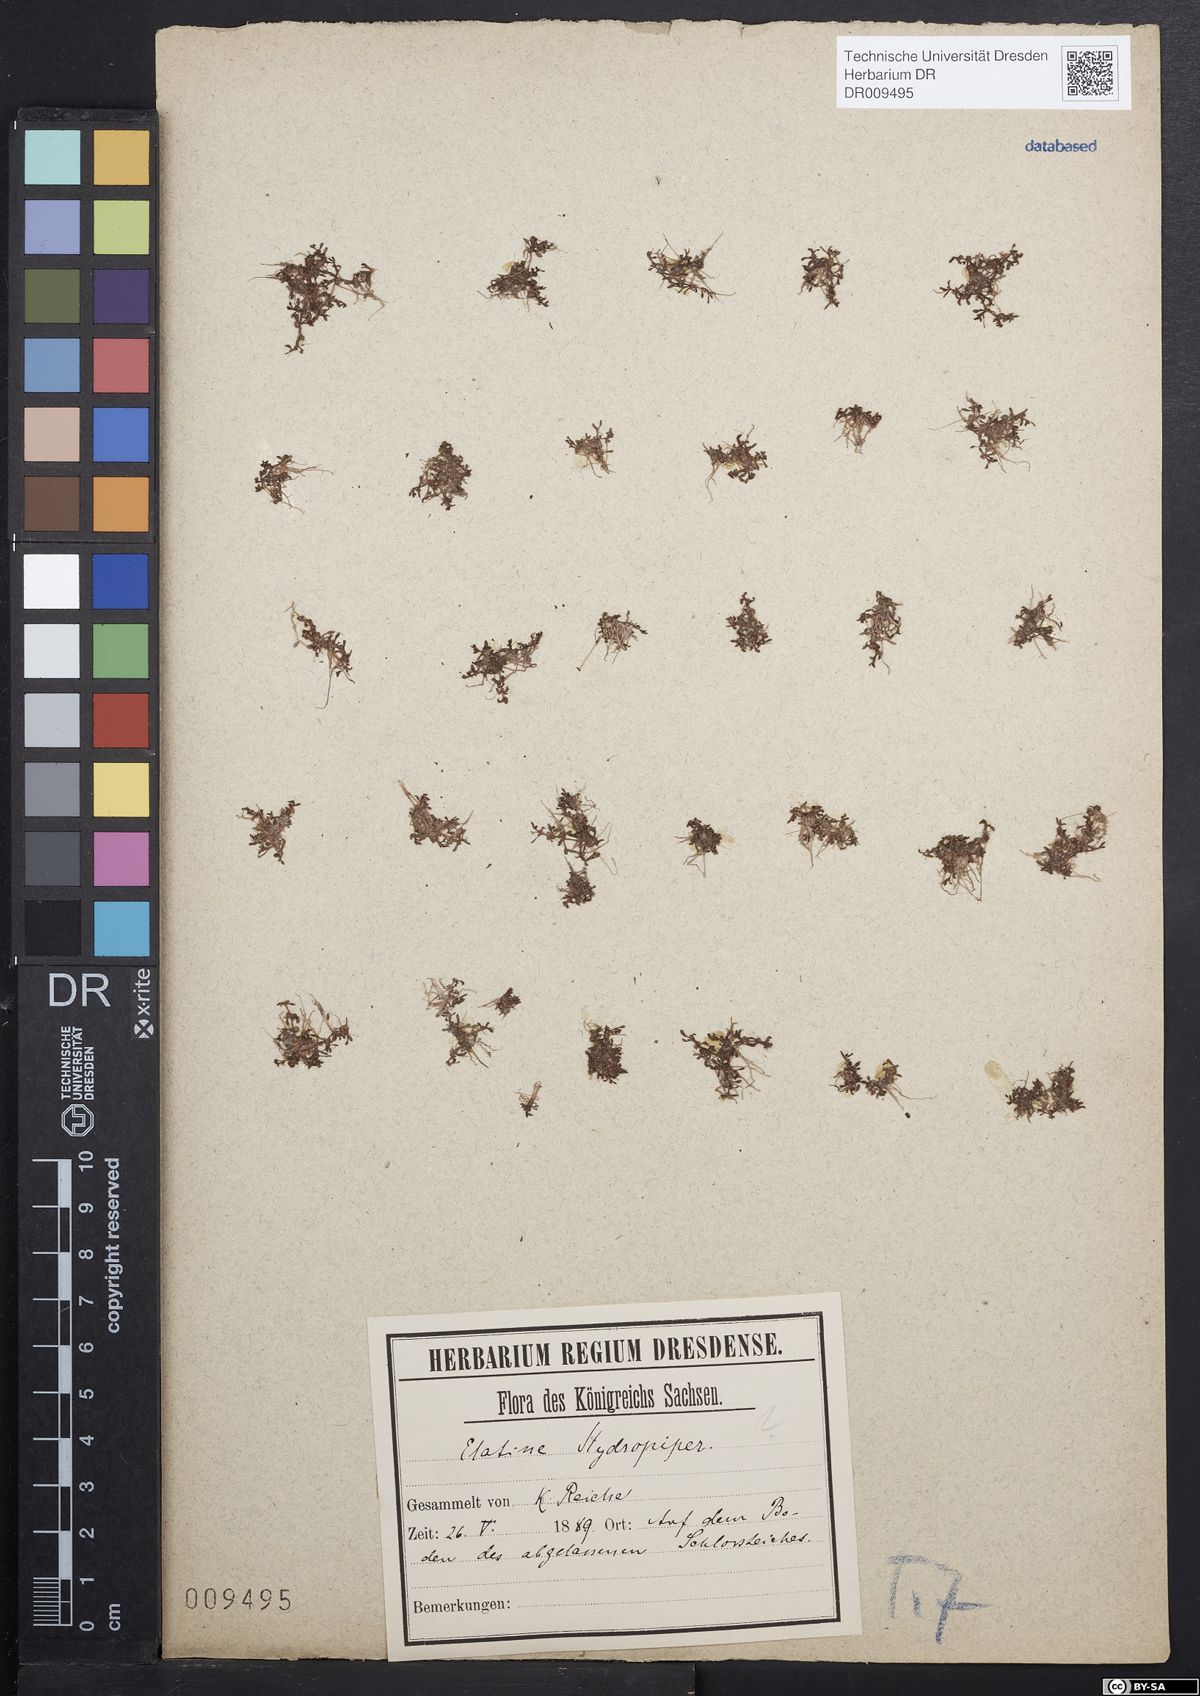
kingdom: Plantae
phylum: Tracheophyta
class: Magnoliopsida
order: Malpighiales
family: Elatinaceae
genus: Elatine
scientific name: Elatine hydropiper
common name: Eight-stamened waterwort
